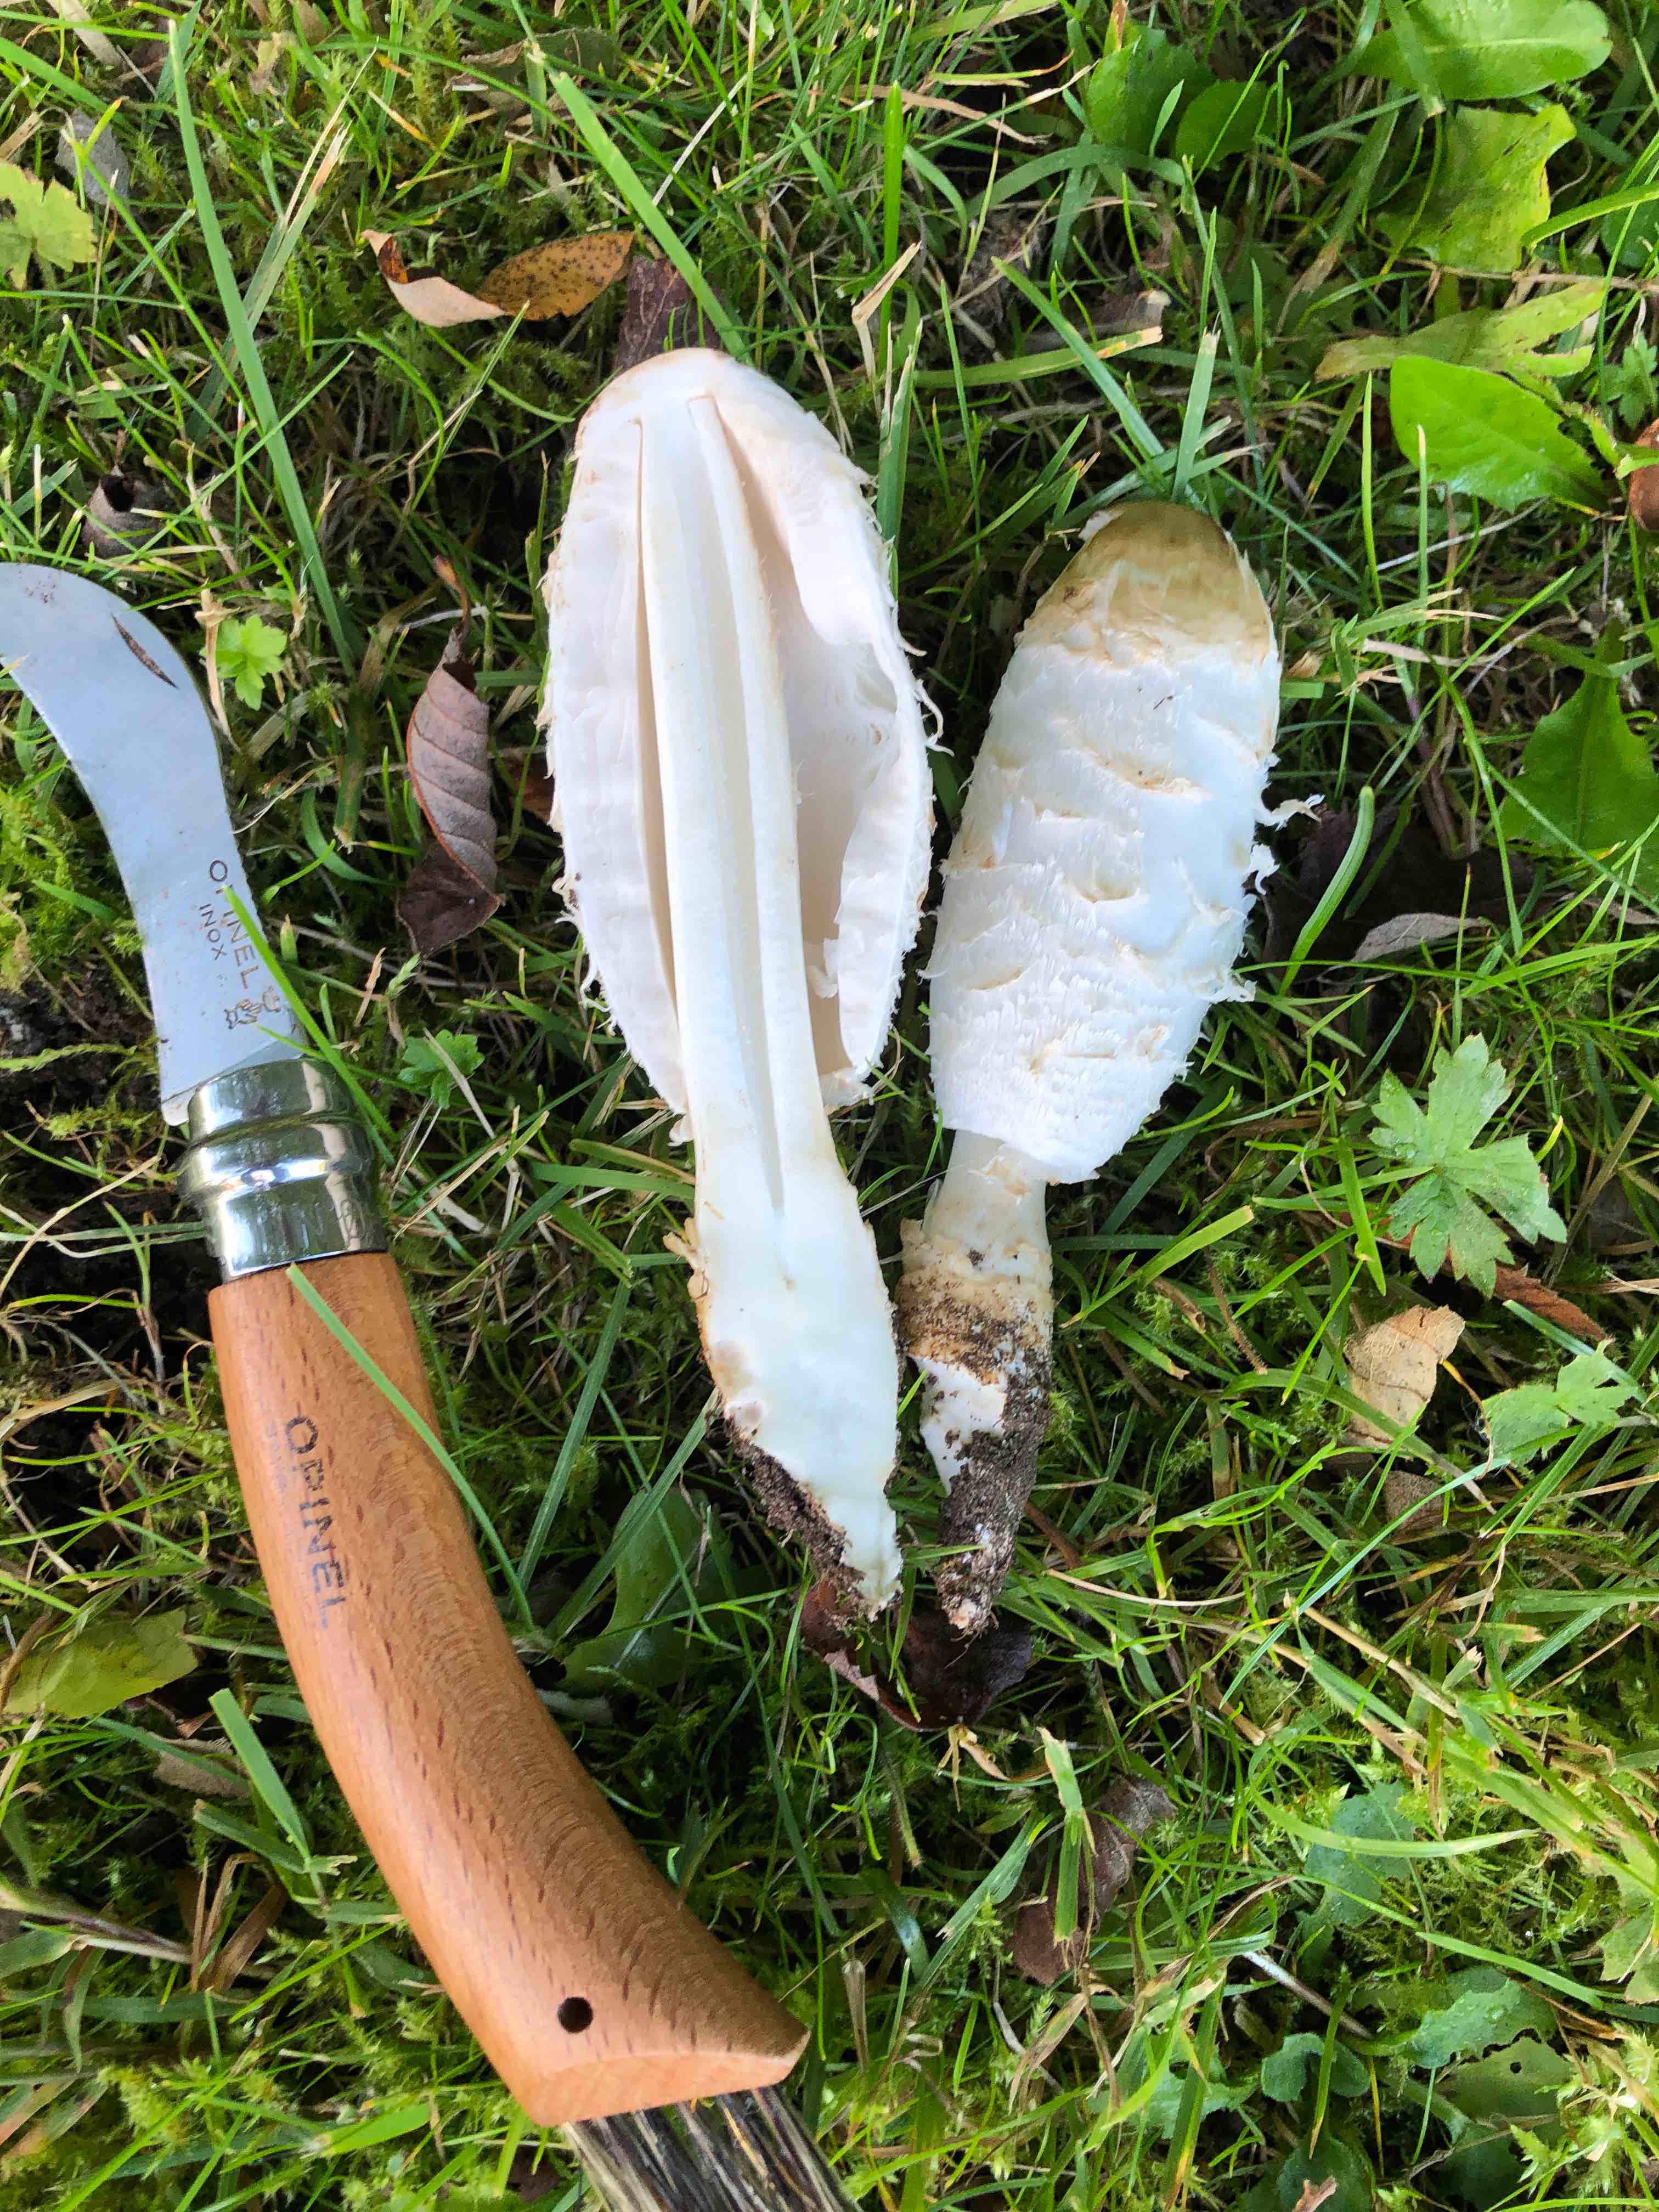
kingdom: Fungi
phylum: Basidiomycota
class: Agaricomycetes
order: Agaricales
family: Agaricaceae
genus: Coprinus
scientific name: Coprinus comatus
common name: stor parykhat
